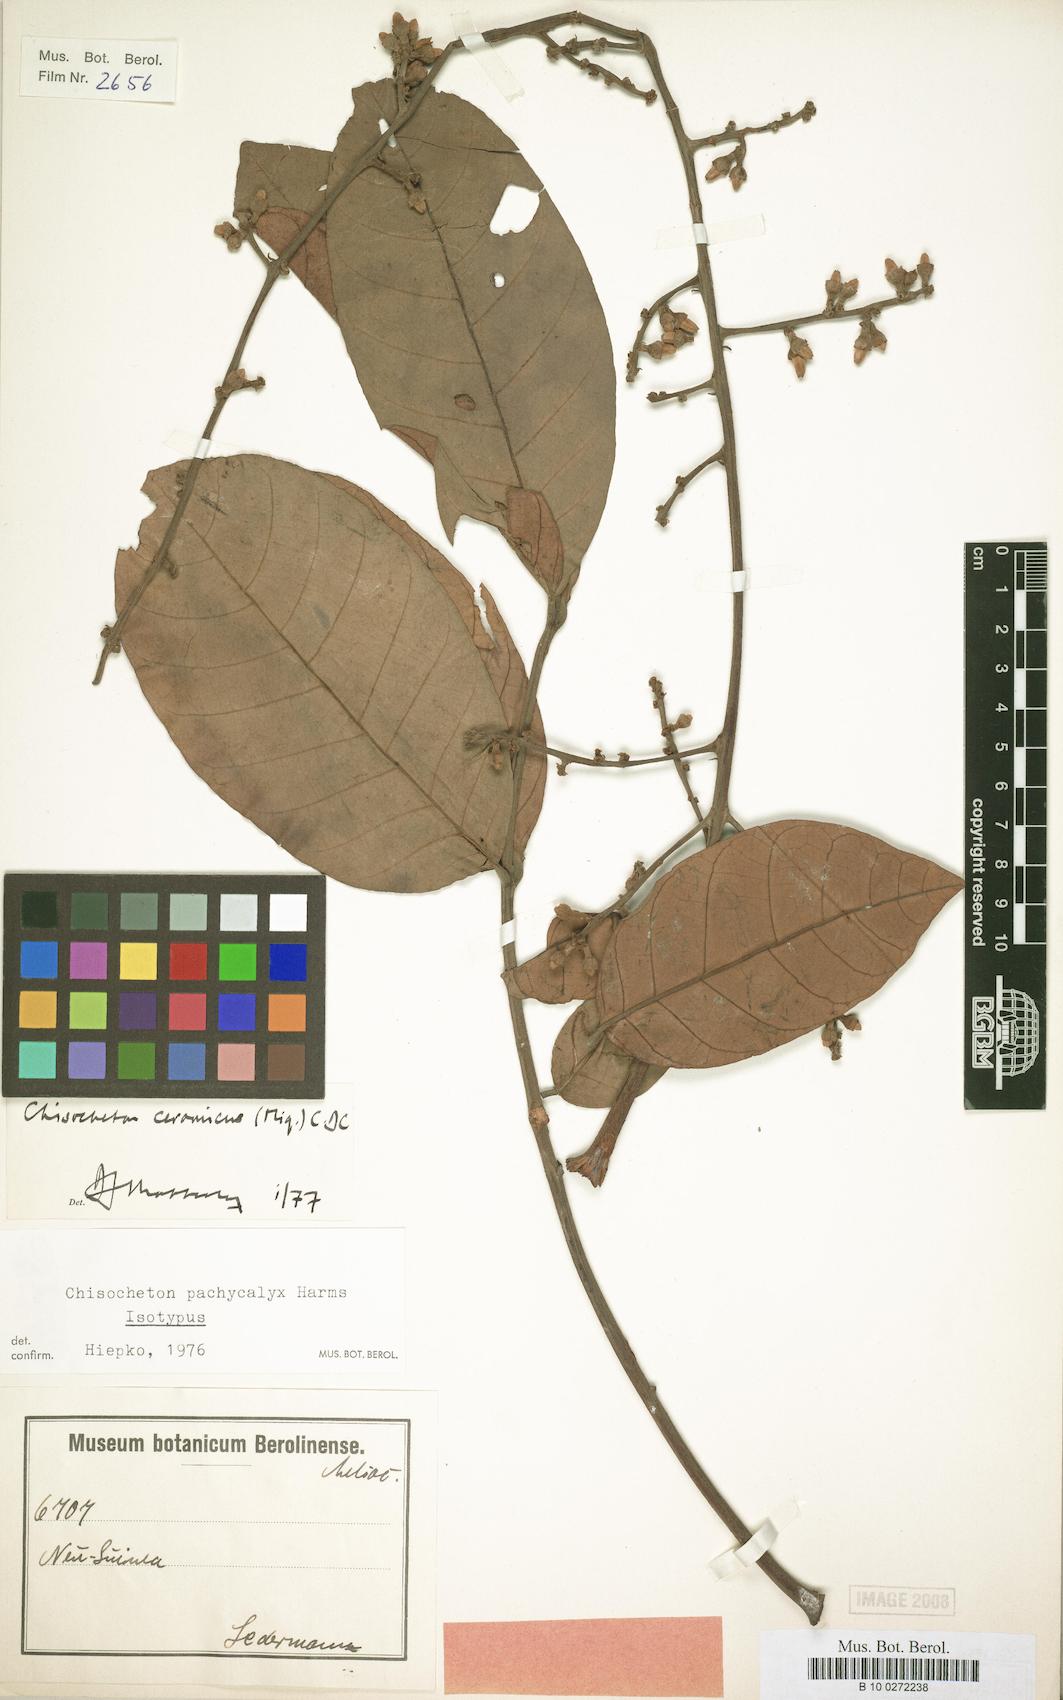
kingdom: Plantae
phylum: Tracheophyta
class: Magnoliopsida
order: Sapindales
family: Meliaceae
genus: Chisocheton
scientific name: Chisocheton ceramicus
